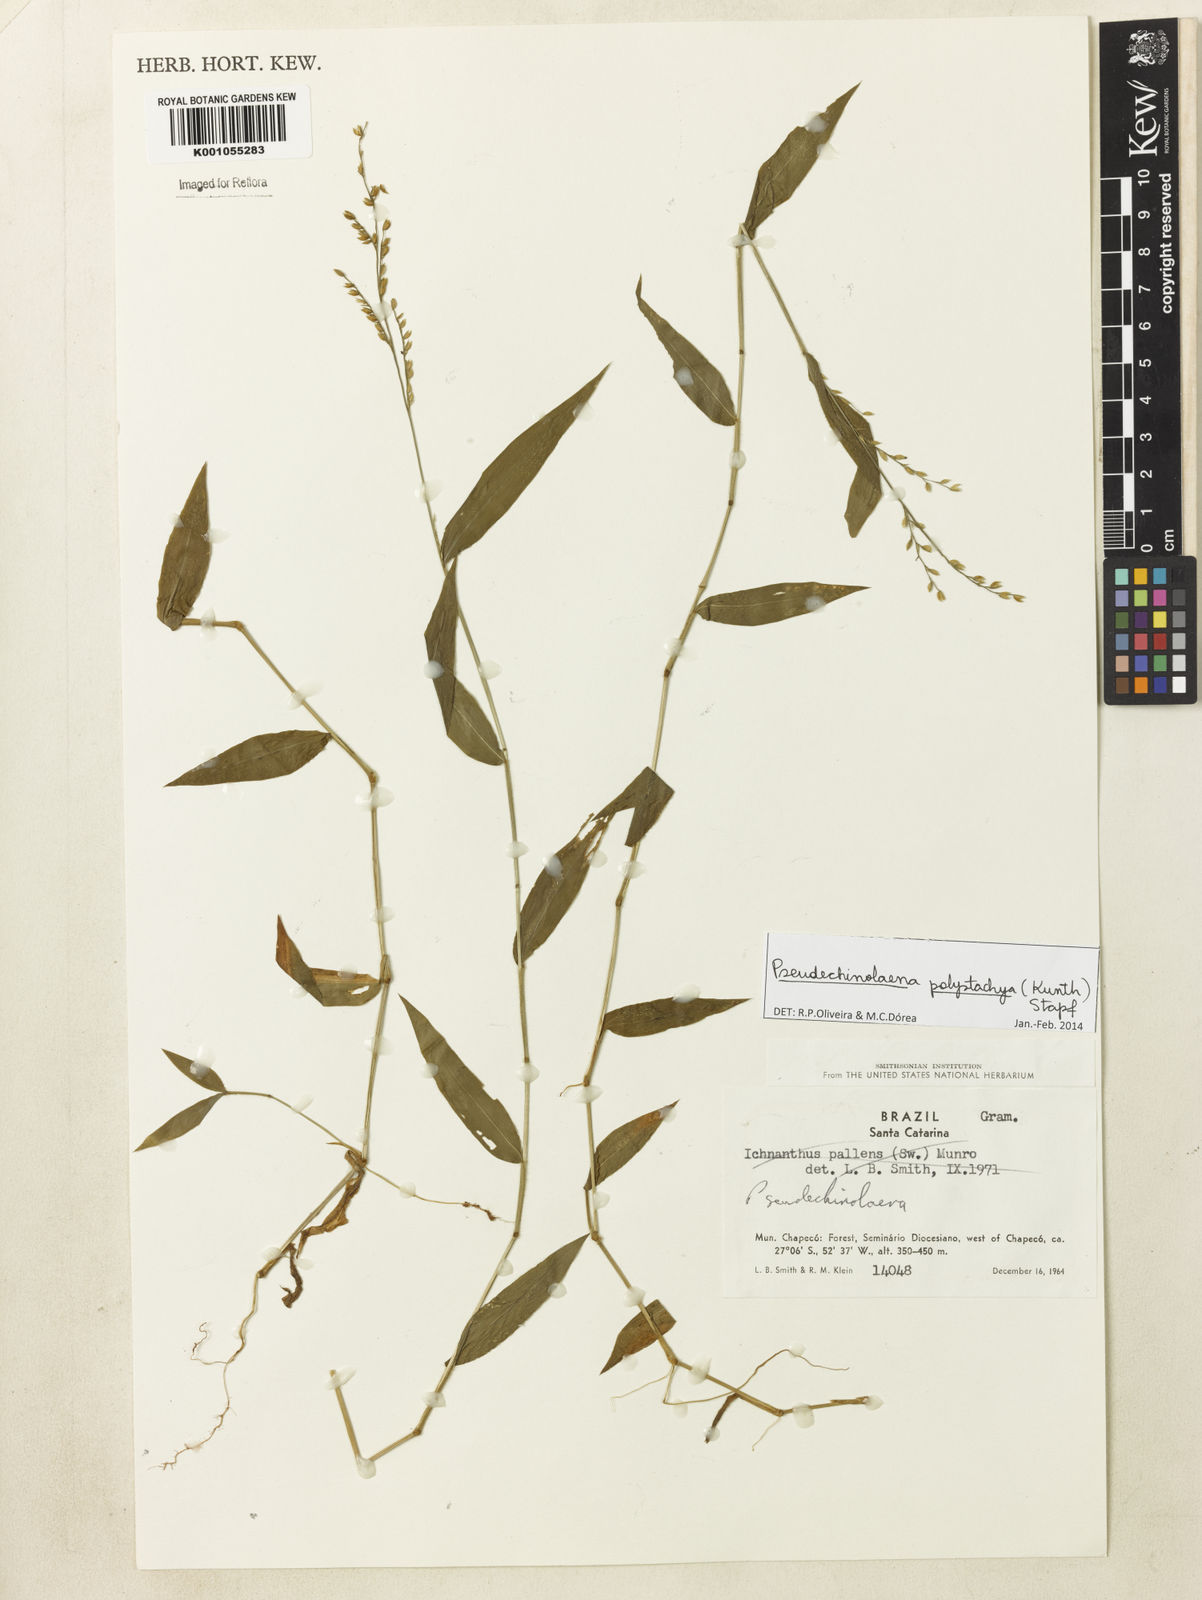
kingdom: Plantae
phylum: Tracheophyta
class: Liliopsida
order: Poales
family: Poaceae
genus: Pseudechinolaena
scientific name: Pseudechinolaena polystachya
